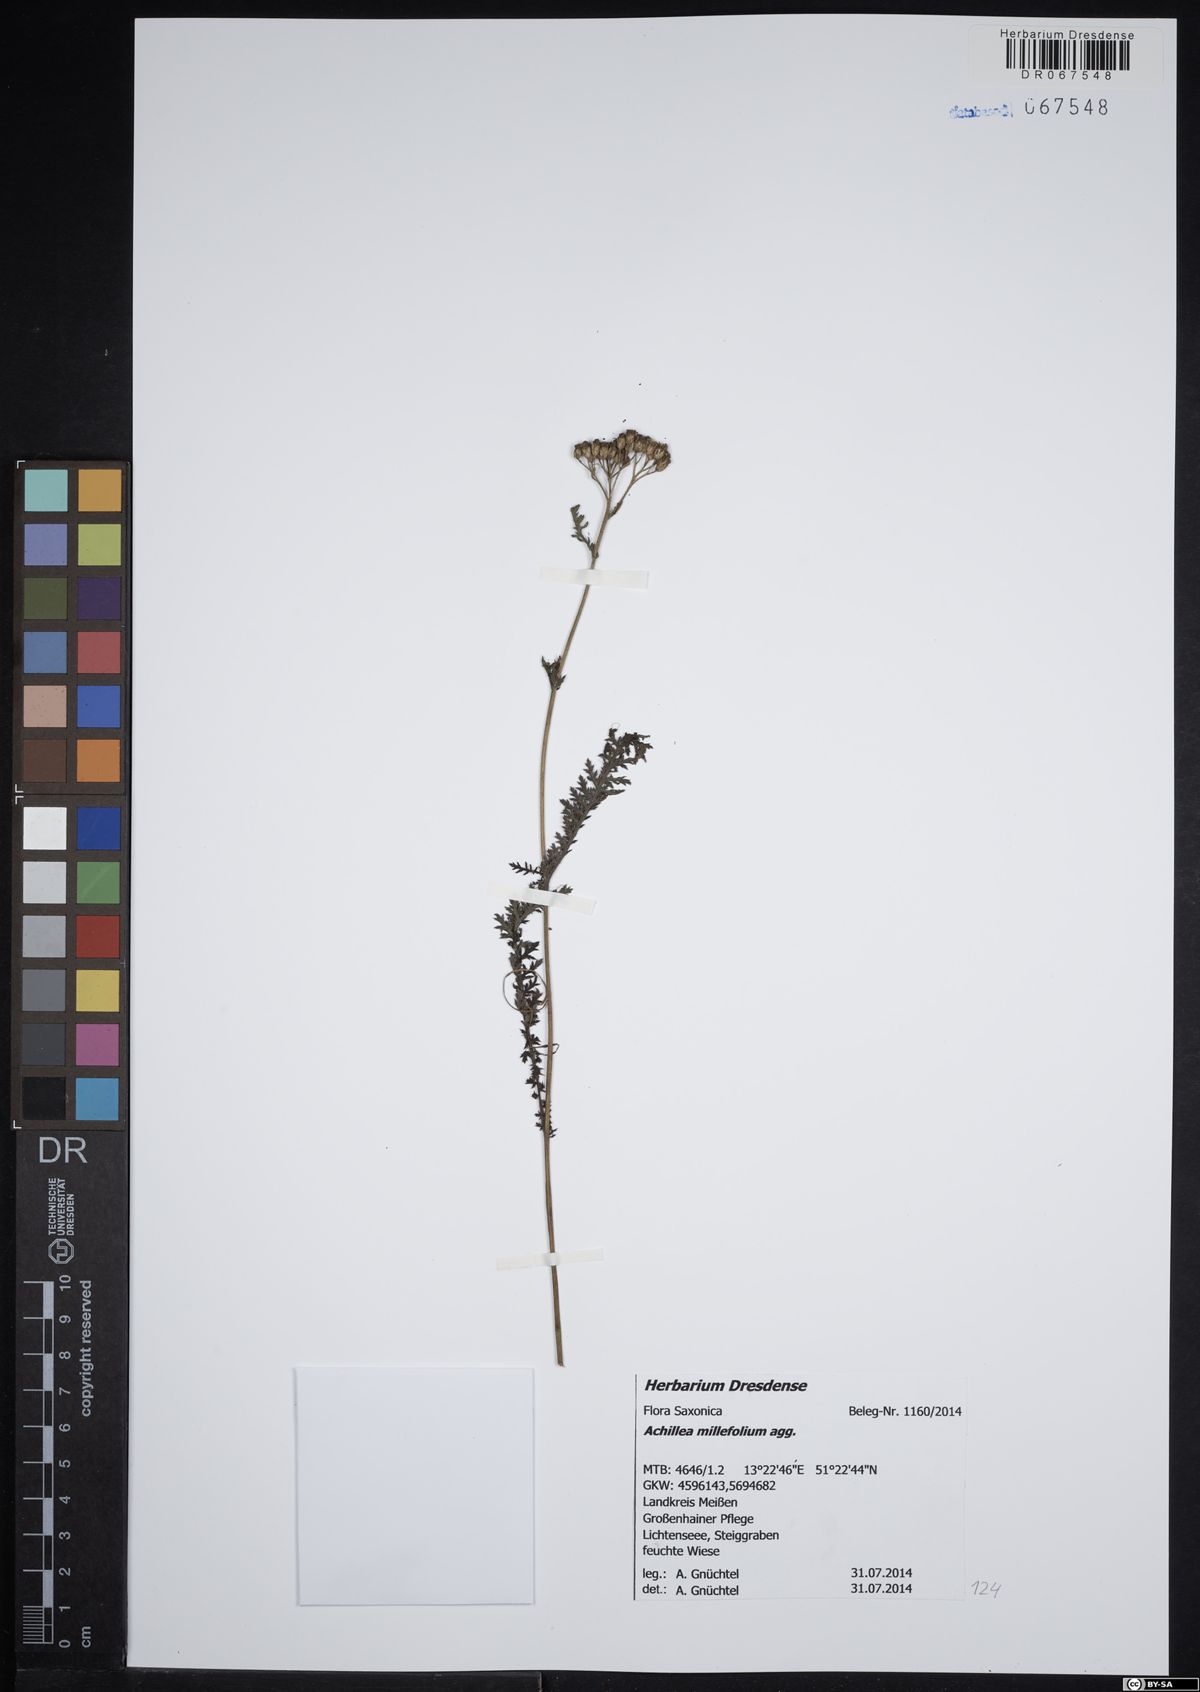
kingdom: Plantae
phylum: Tracheophyta
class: Magnoliopsida
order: Asterales
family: Asteraceae
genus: Achillea
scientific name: Achillea millefolium
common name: Yarrow
